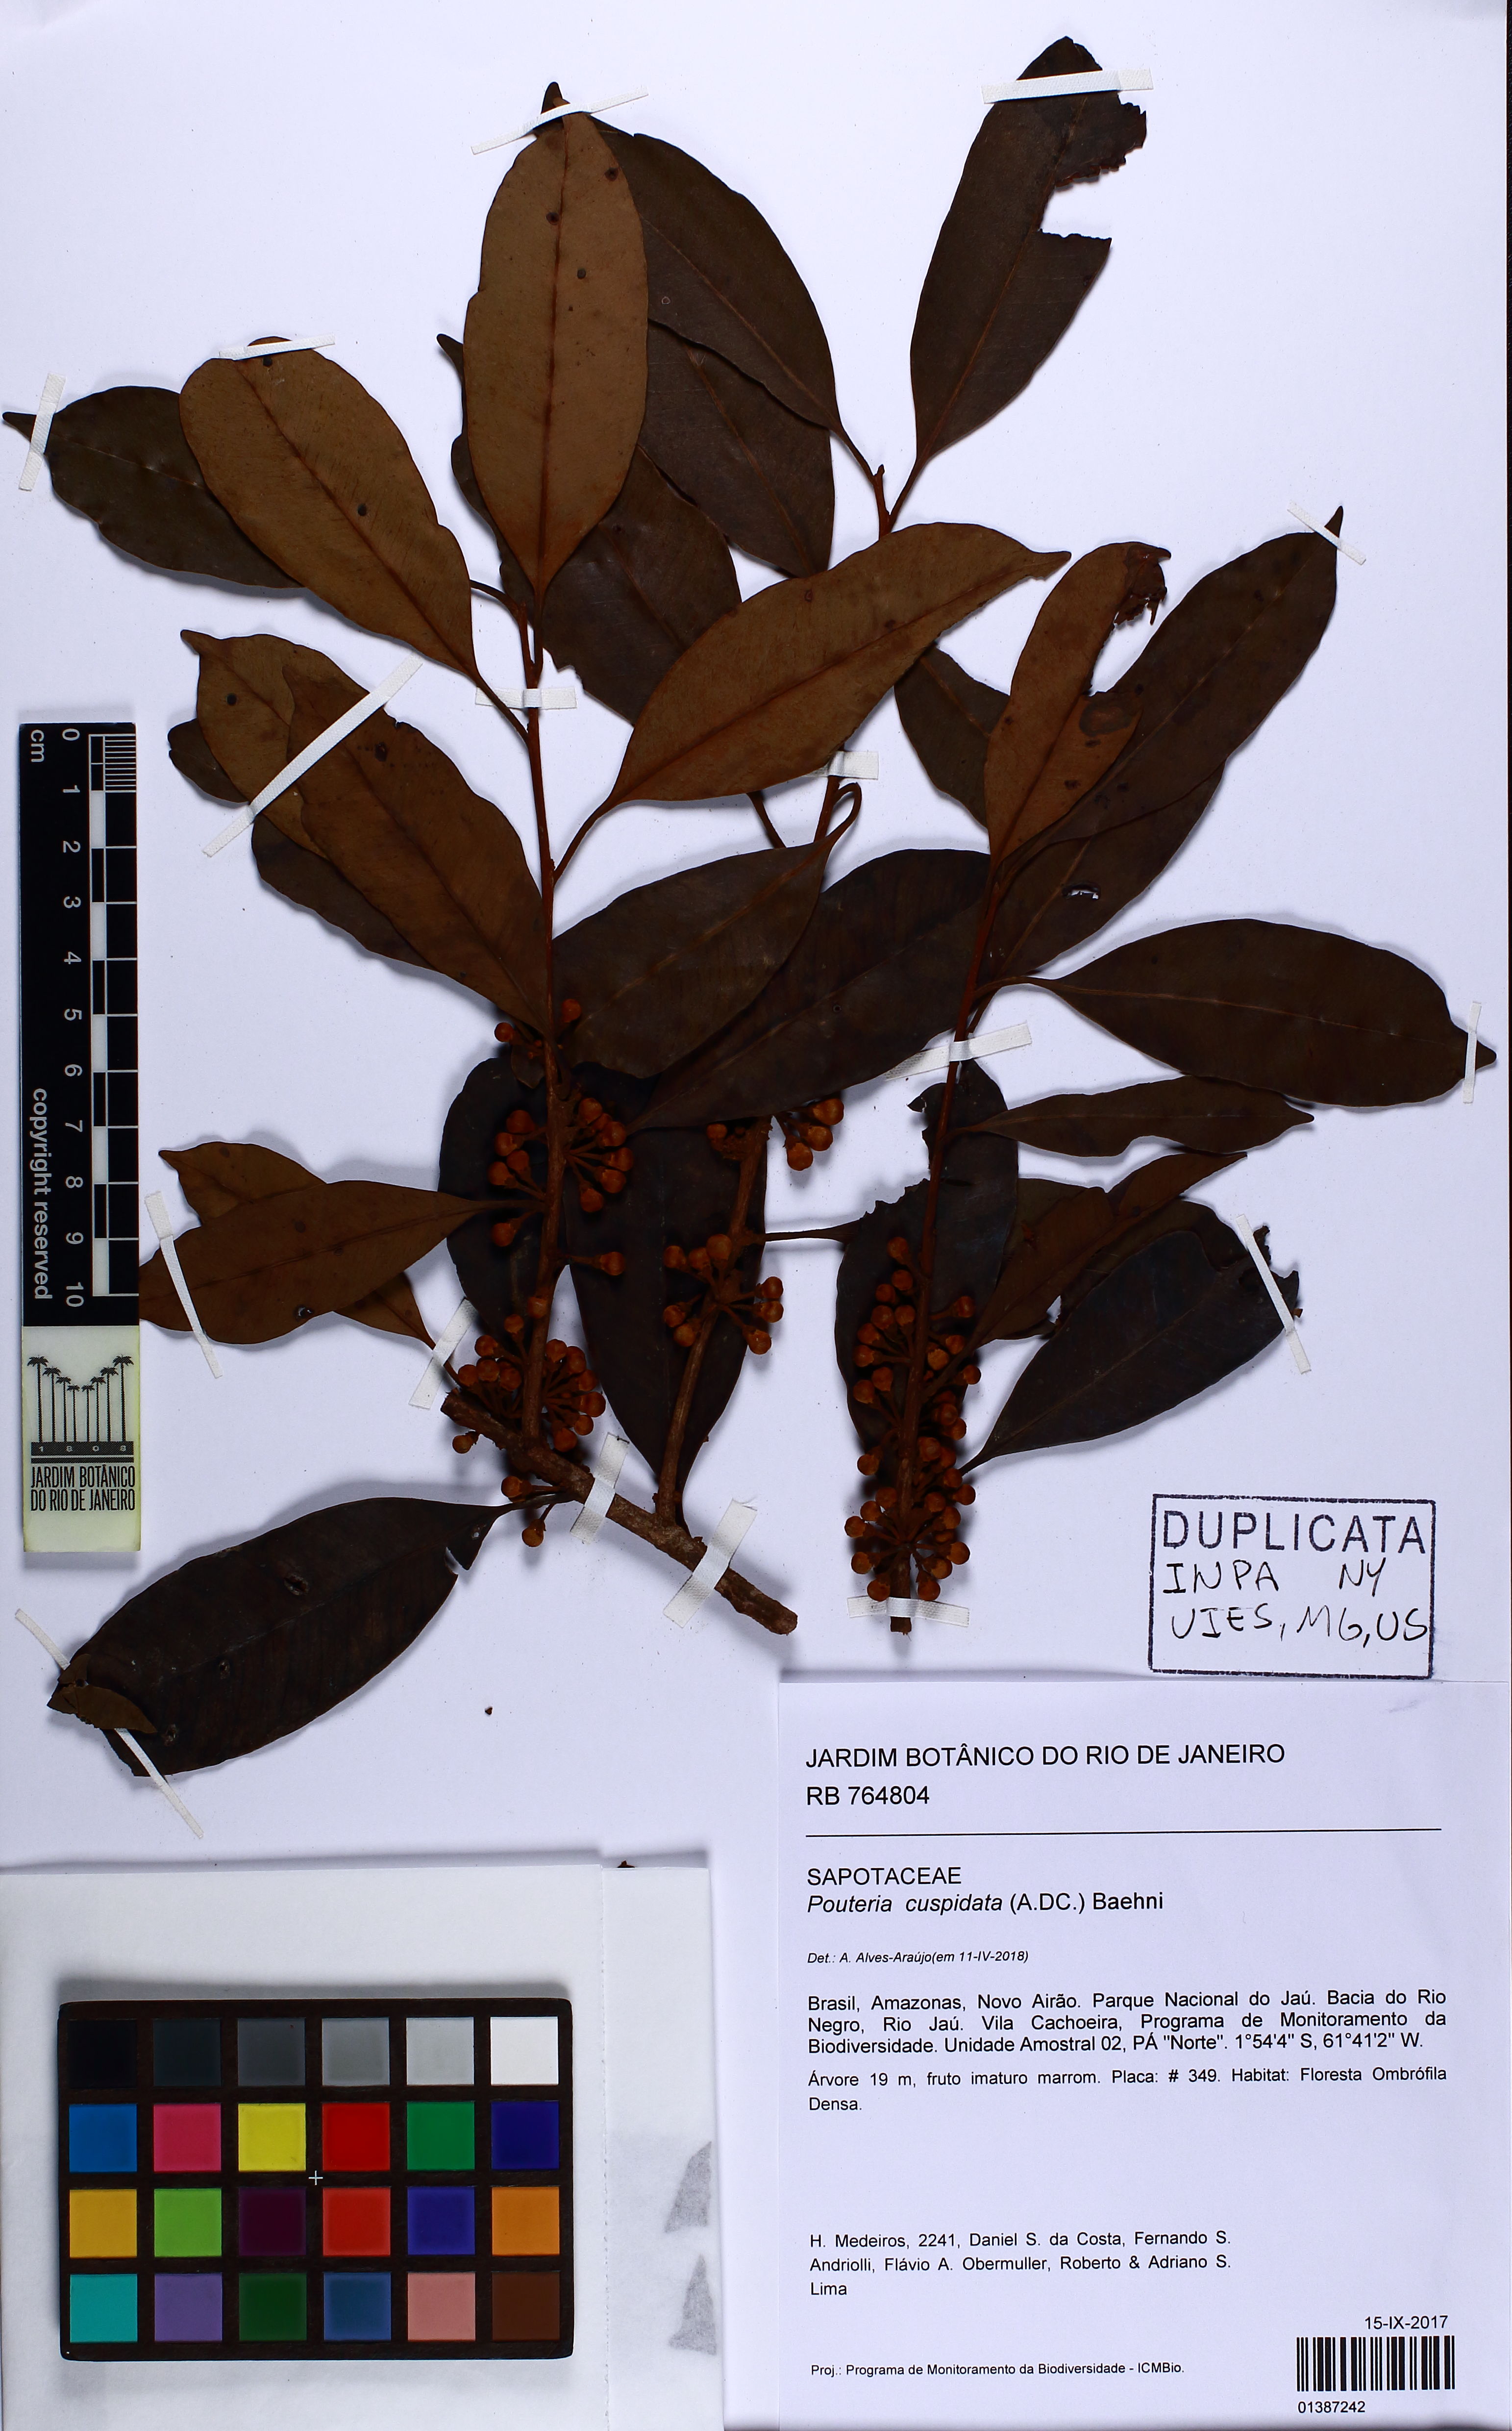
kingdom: Plantae
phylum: Tracheophyta
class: Magnoliopsida
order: Ericales
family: Sapotaceae
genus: Pouteria
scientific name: Pouteria cuspidata
